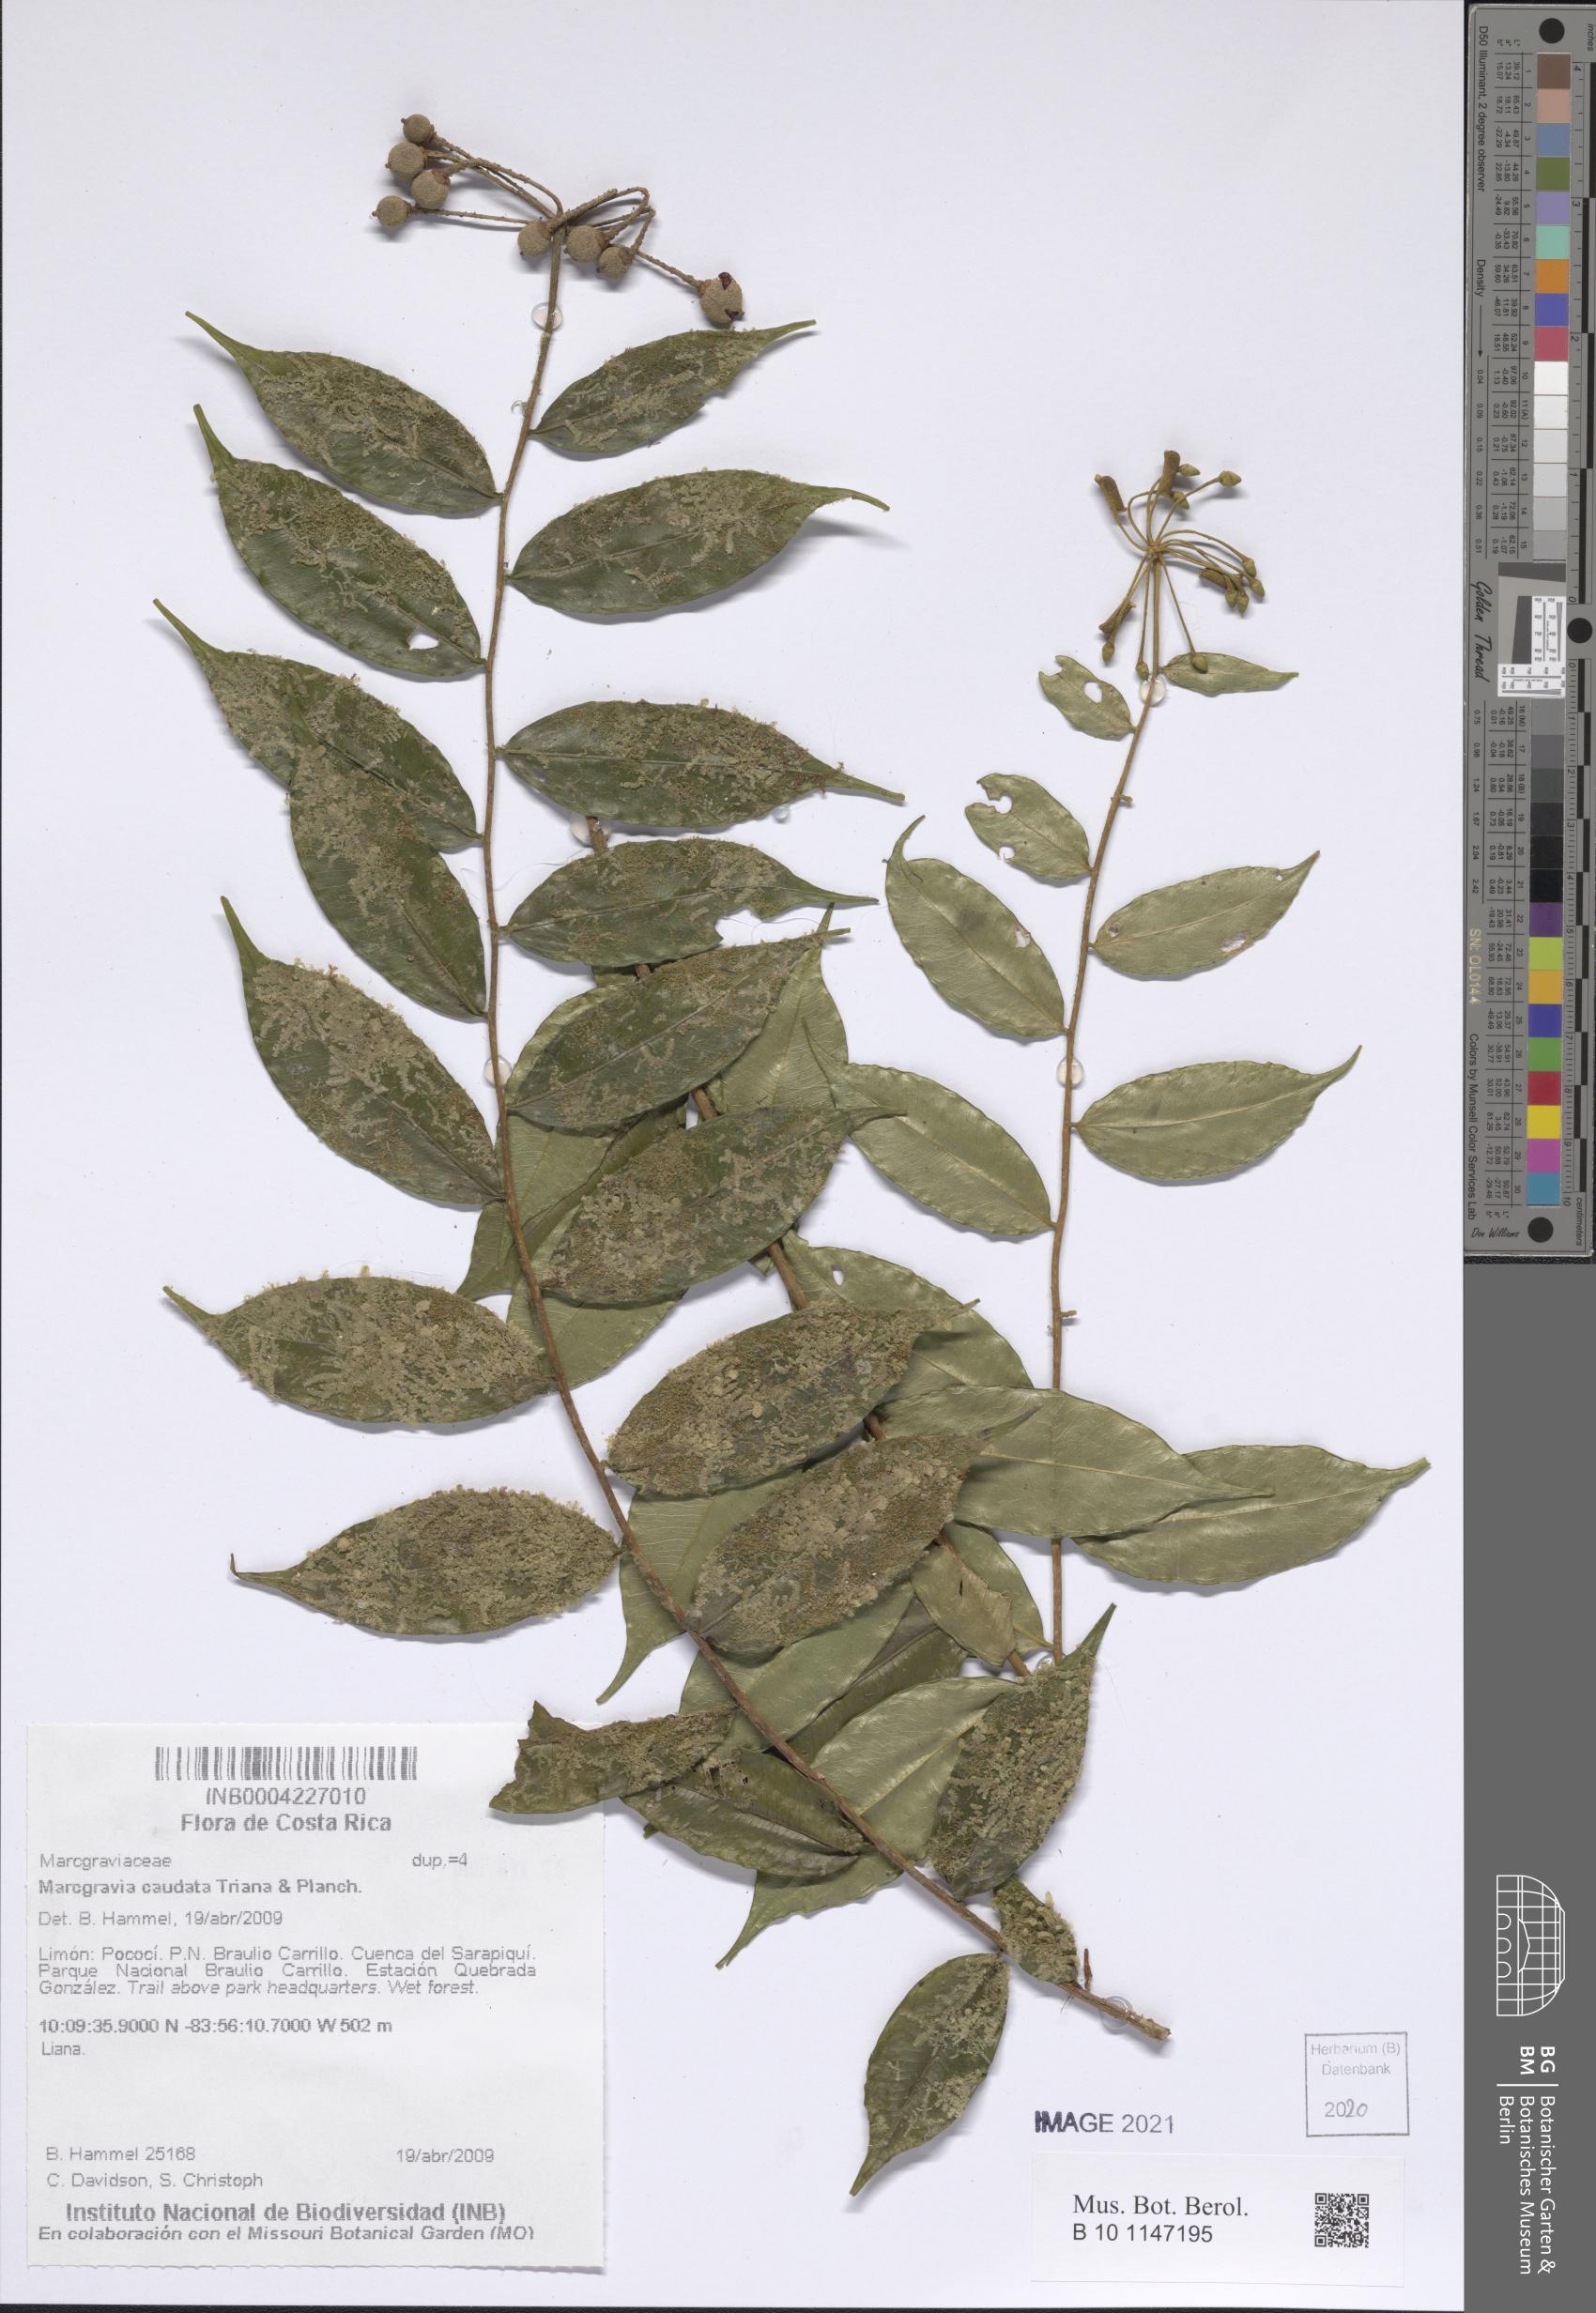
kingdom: Plantae
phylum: Tracheophyta
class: Magnoliopsida
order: Ericales
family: Marcgraviaceae
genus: Marcgravia
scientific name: Marcgravia caudata
